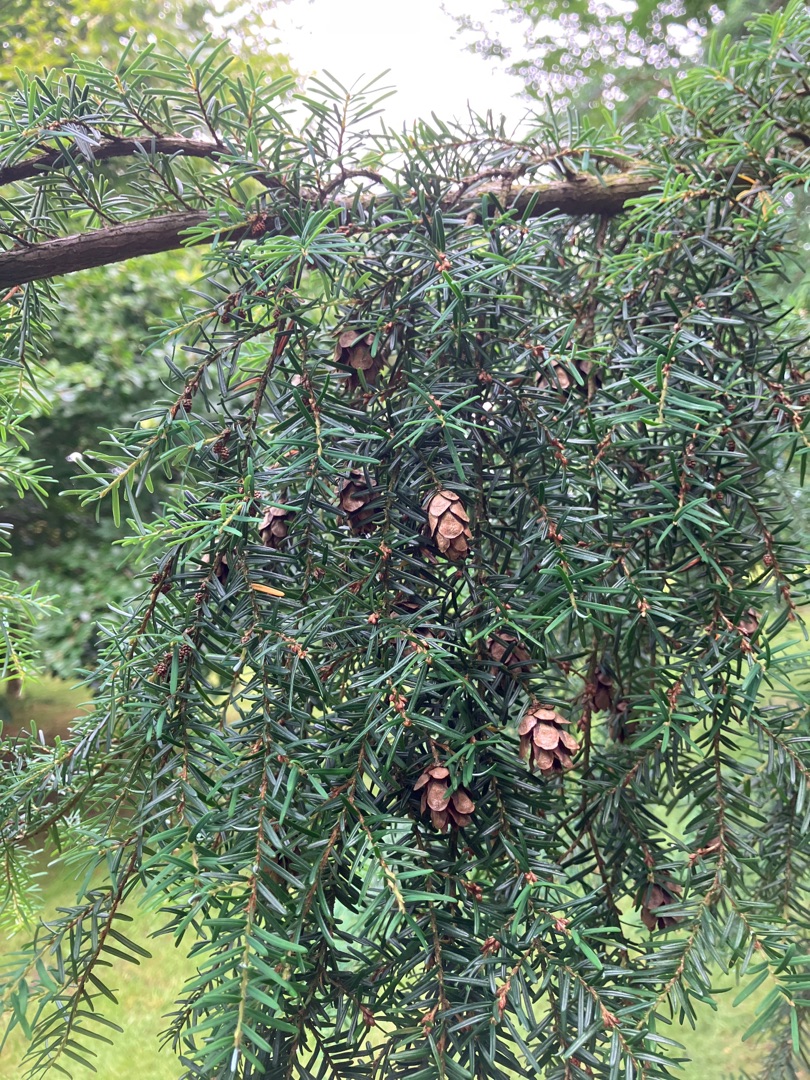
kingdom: Plantae
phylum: Tracheophyta
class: Pinopsida
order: Pinales
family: Pinaceae
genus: Tsuga
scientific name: Tsuga heterophylla
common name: Skarntydegran
